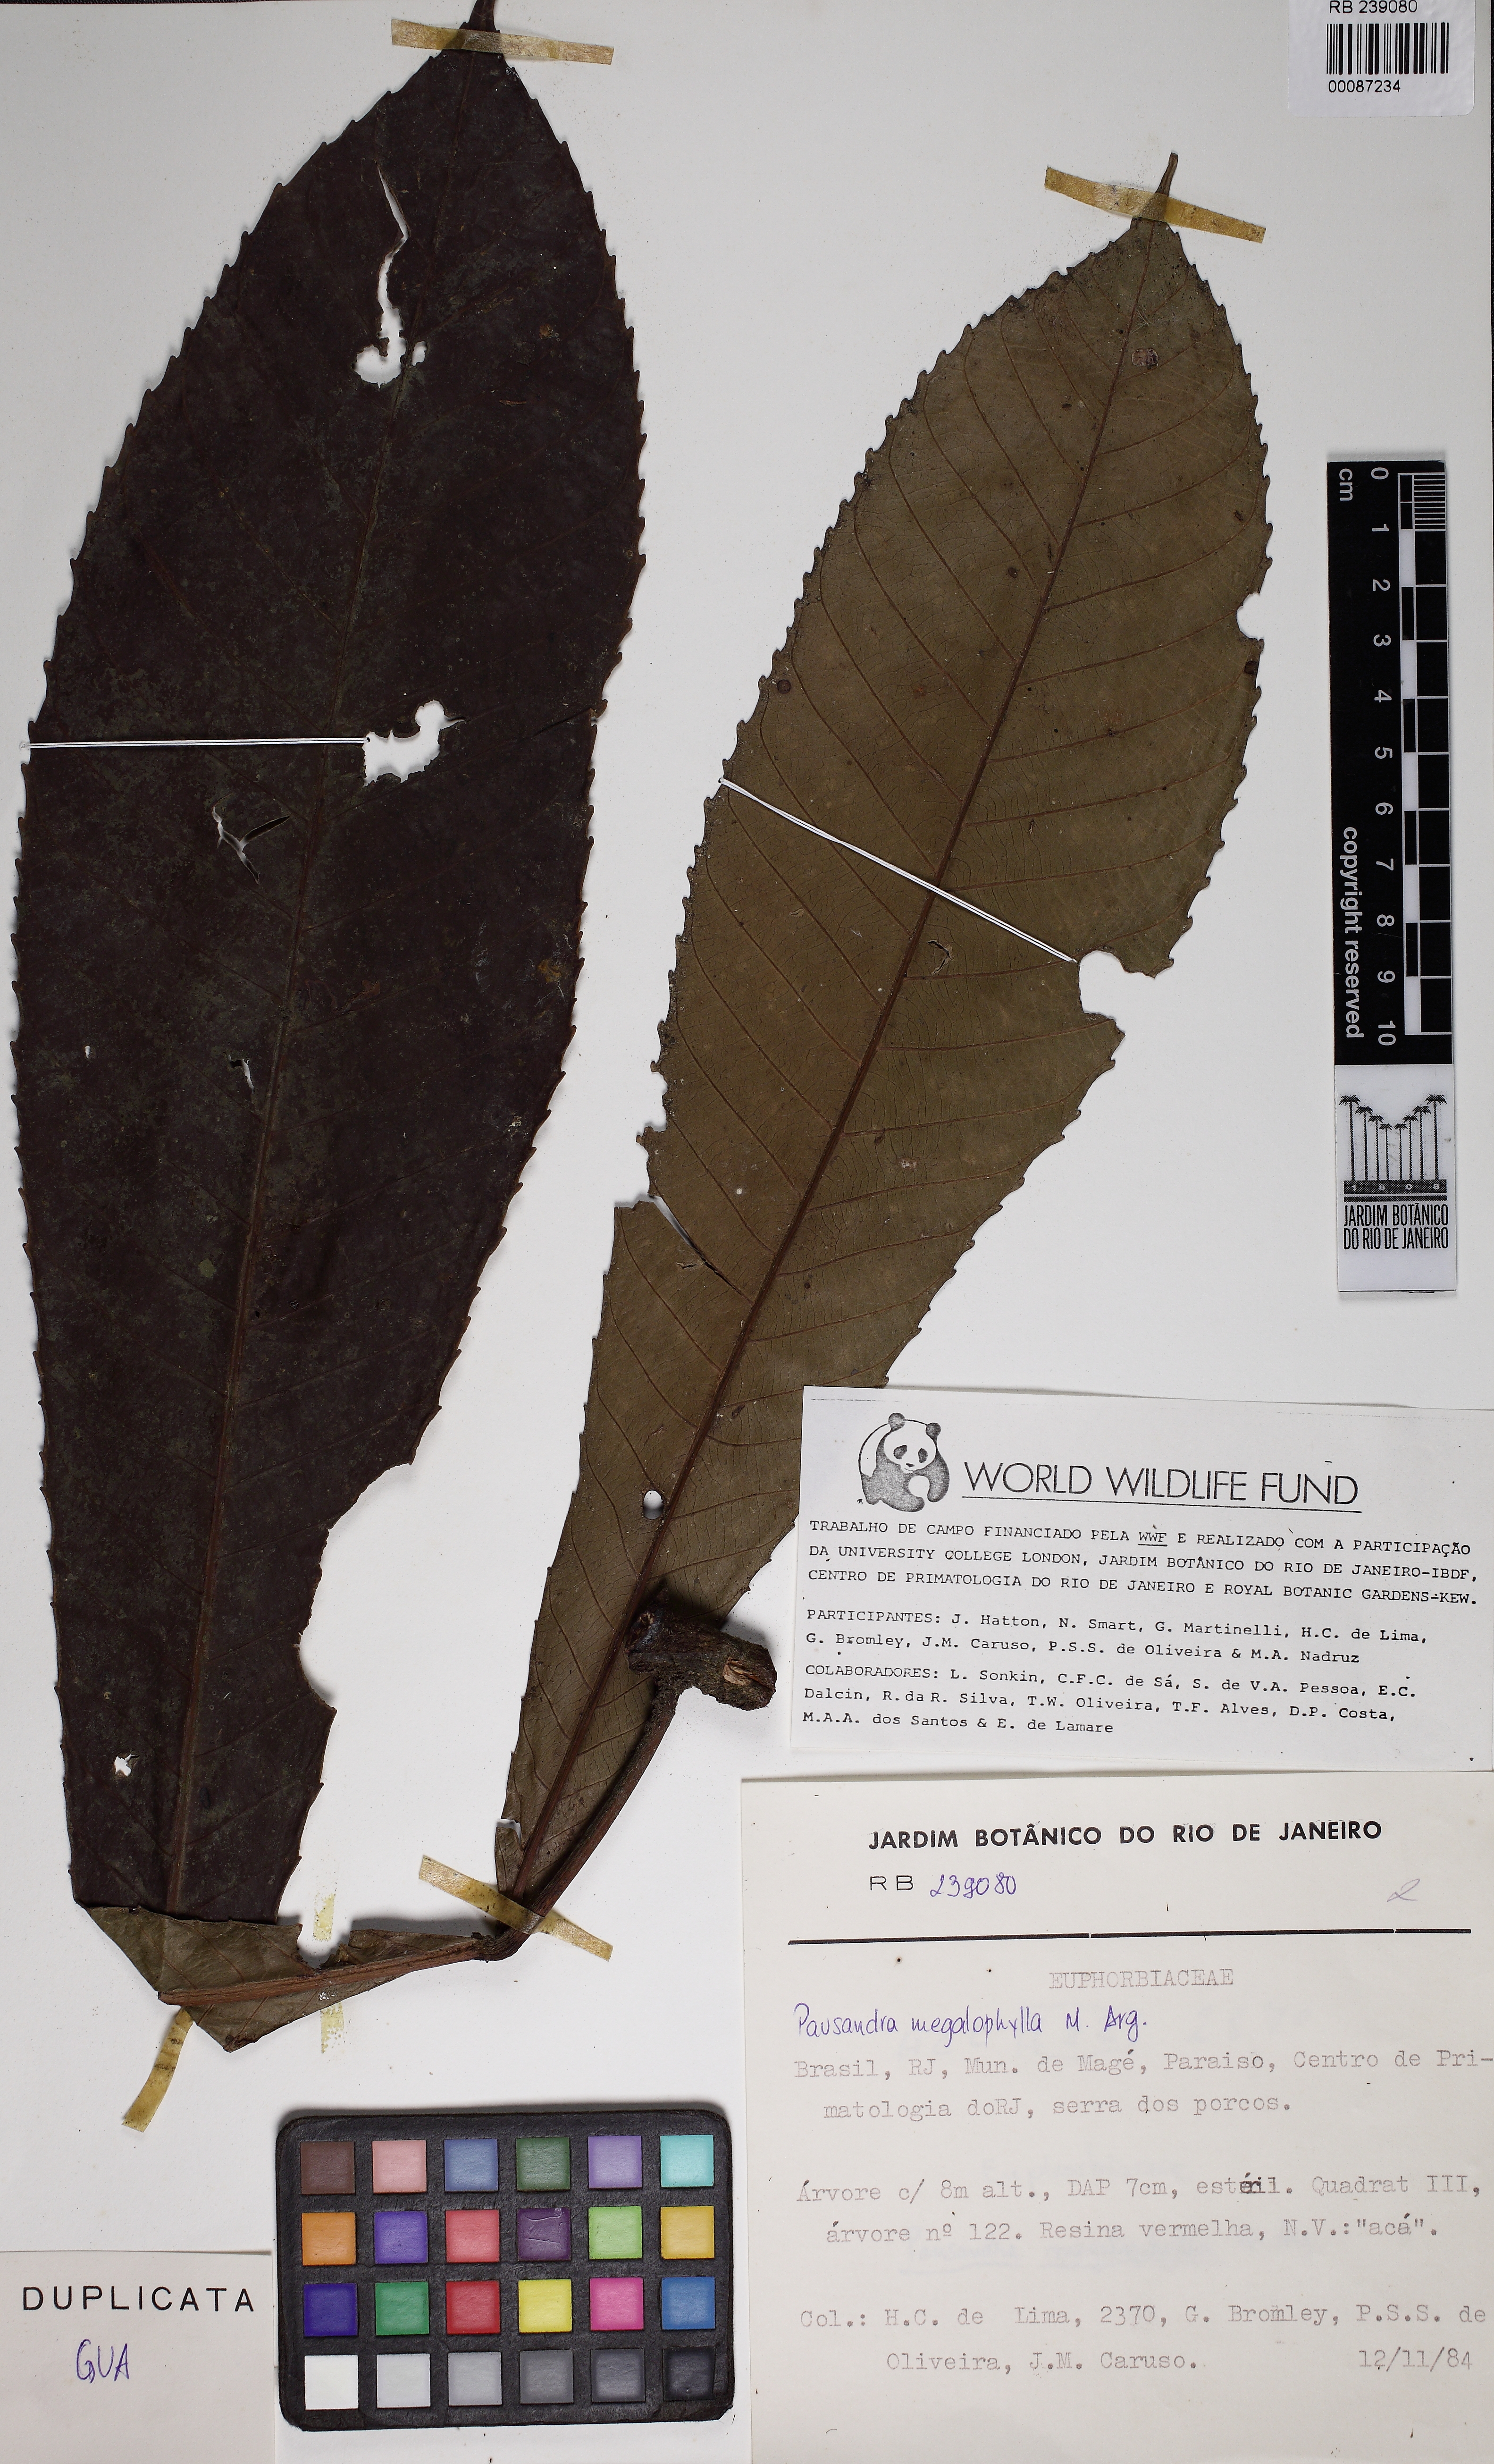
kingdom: Plantae
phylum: Tracheophyta
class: Magnoliopsida
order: Malpighiales
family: Euphorbiaceae
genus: Pausandra
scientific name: Pausandra megalophylla
